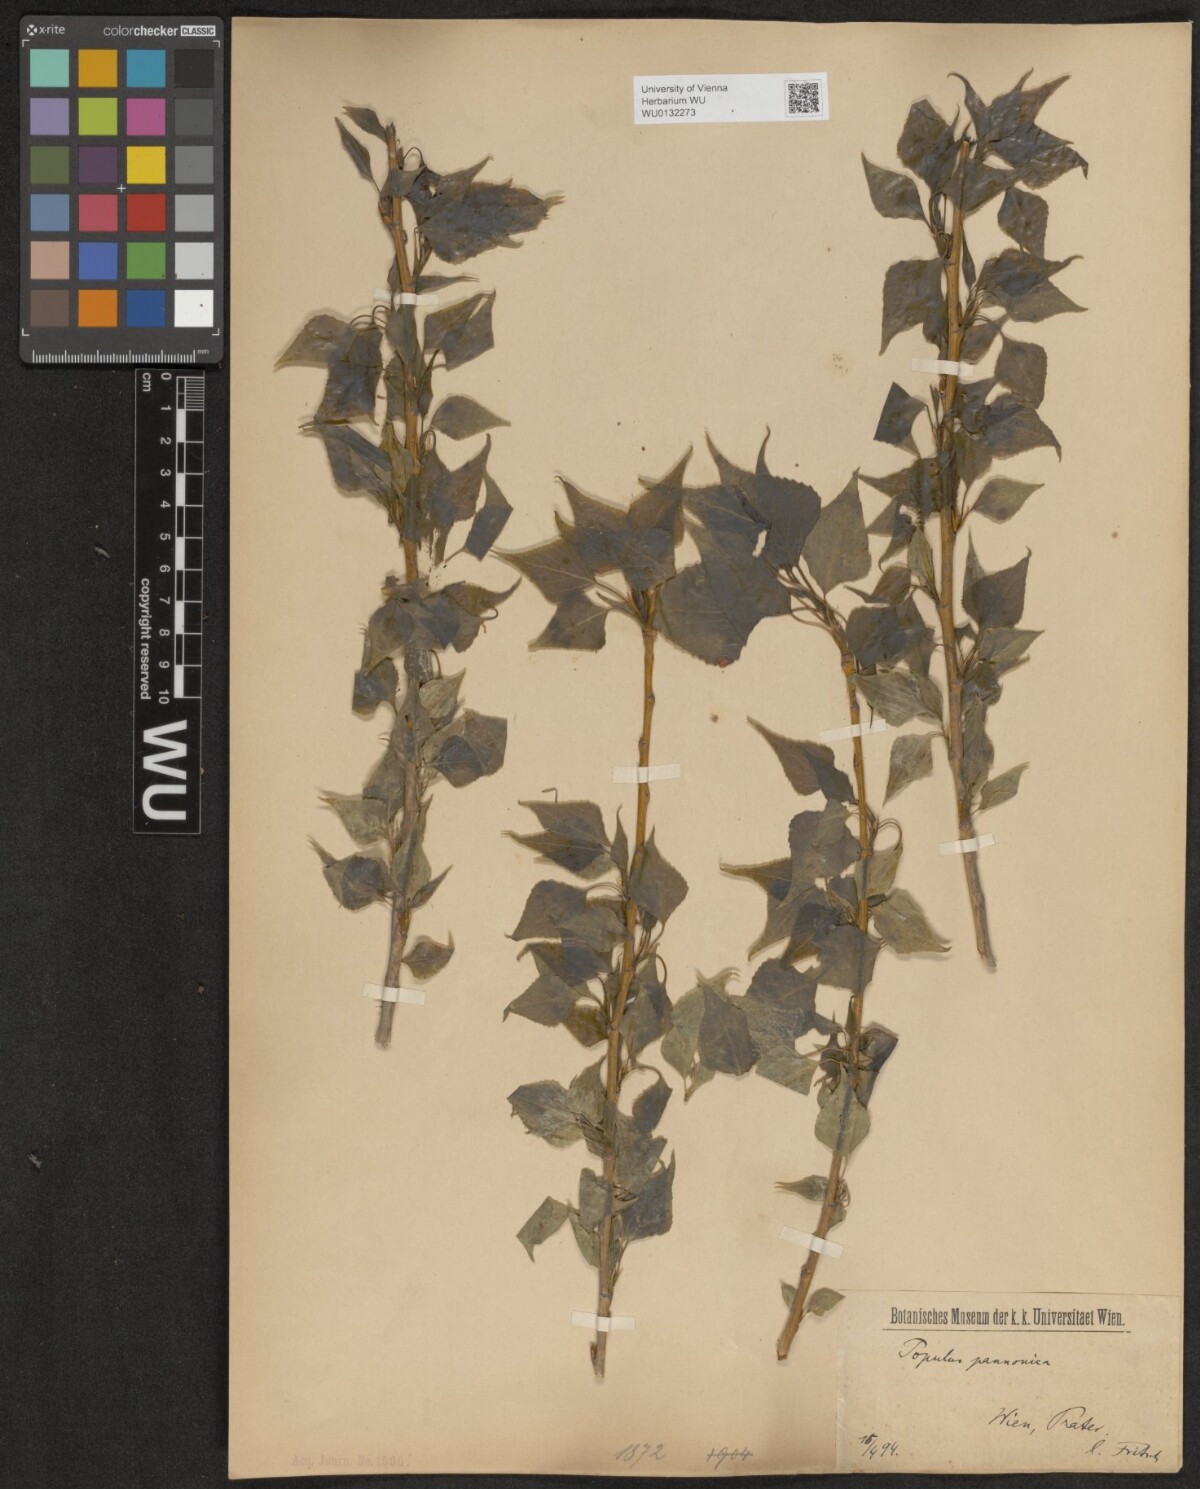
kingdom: Plantae
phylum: Tracheophyta
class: Magnoliopsida
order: Malpighiales
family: Salicaceae
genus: Populus
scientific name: Populus nigra
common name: Black poplar
